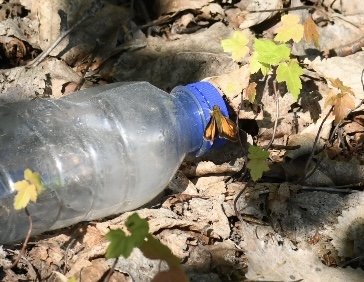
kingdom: Animalia
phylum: Arthropoda
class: Insecta
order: Lepidoptera
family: Hesperiidae
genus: Lon
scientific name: Lon hobomok
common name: Hobomok Skipper
